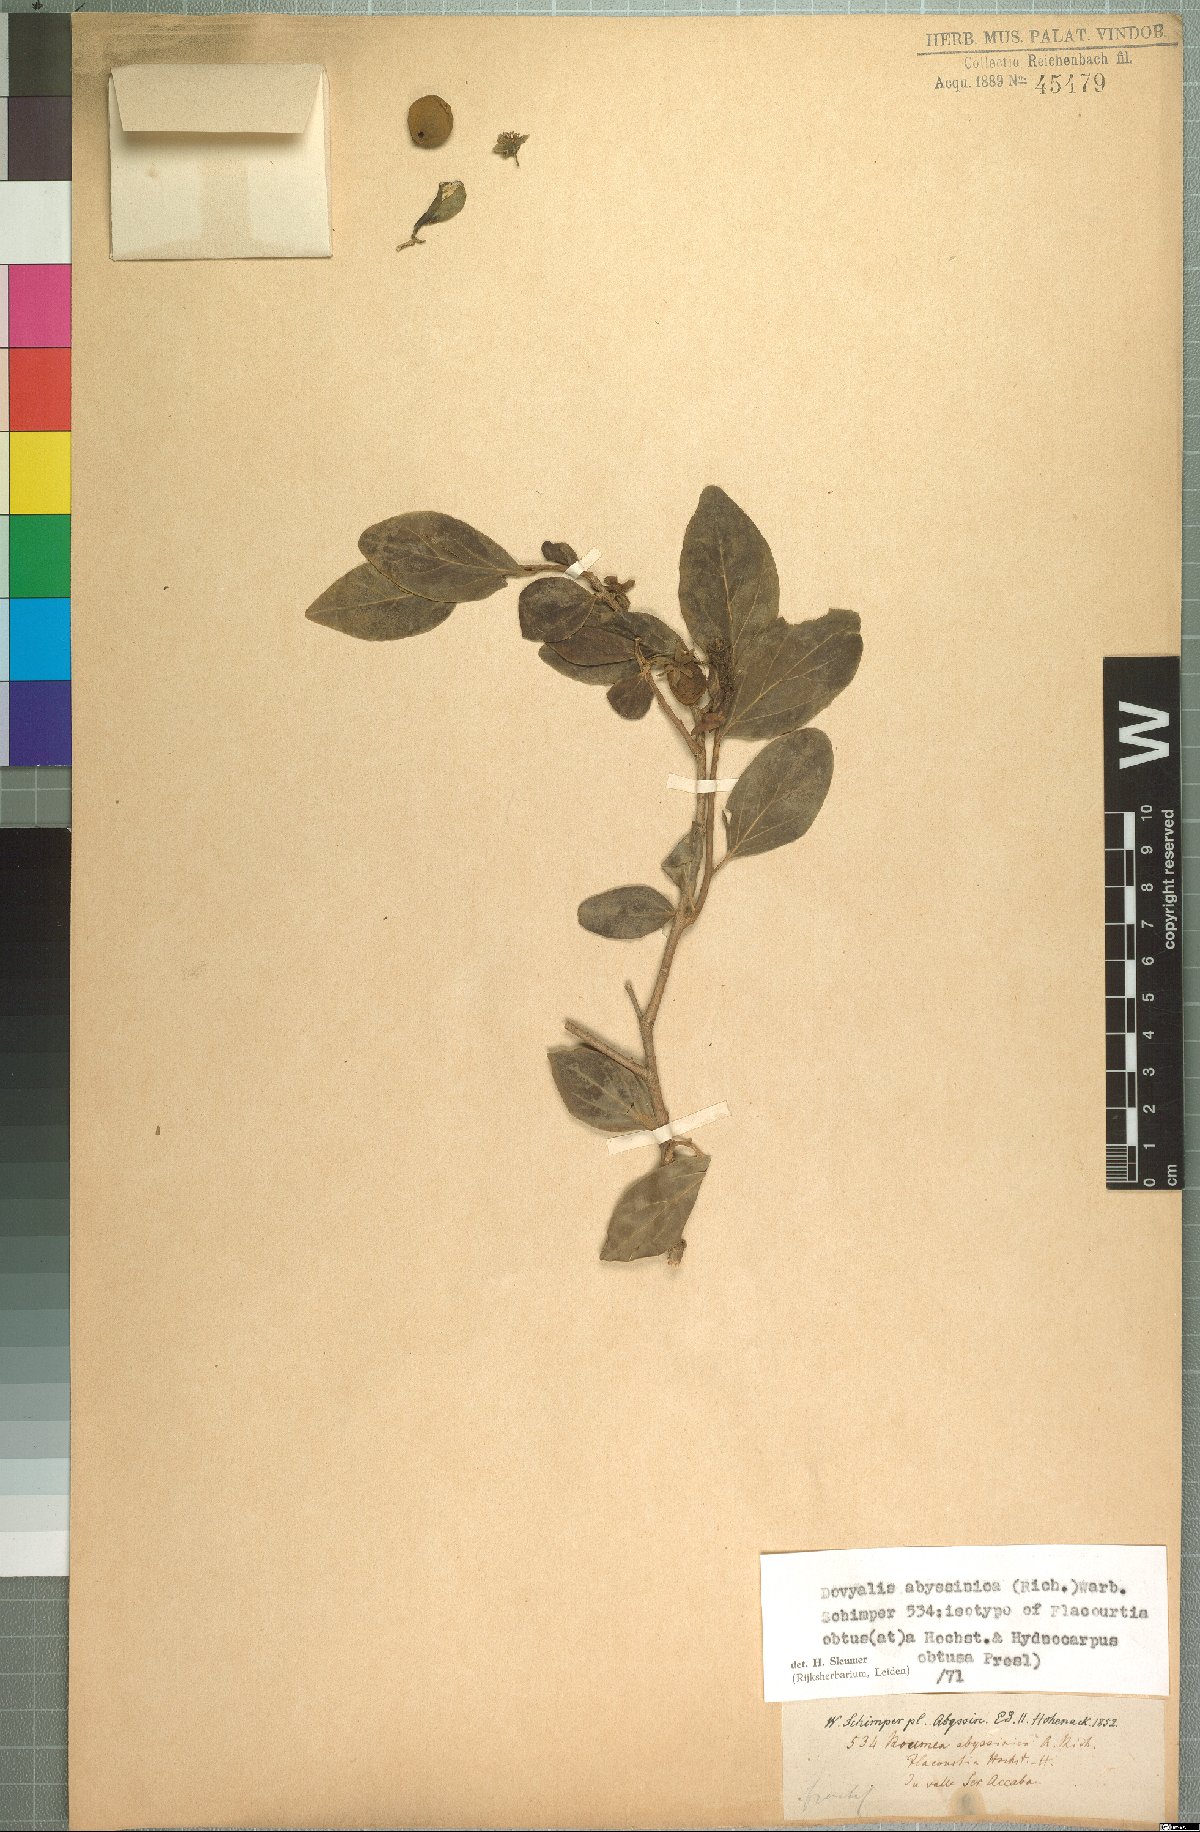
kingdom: Plantae
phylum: Tracheophyta
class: Magnoliopsida
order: Malpighiales
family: Salicaceae
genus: Dovyalis
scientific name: Dovyalis abyssinica
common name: Abyssinian-gooseberry
